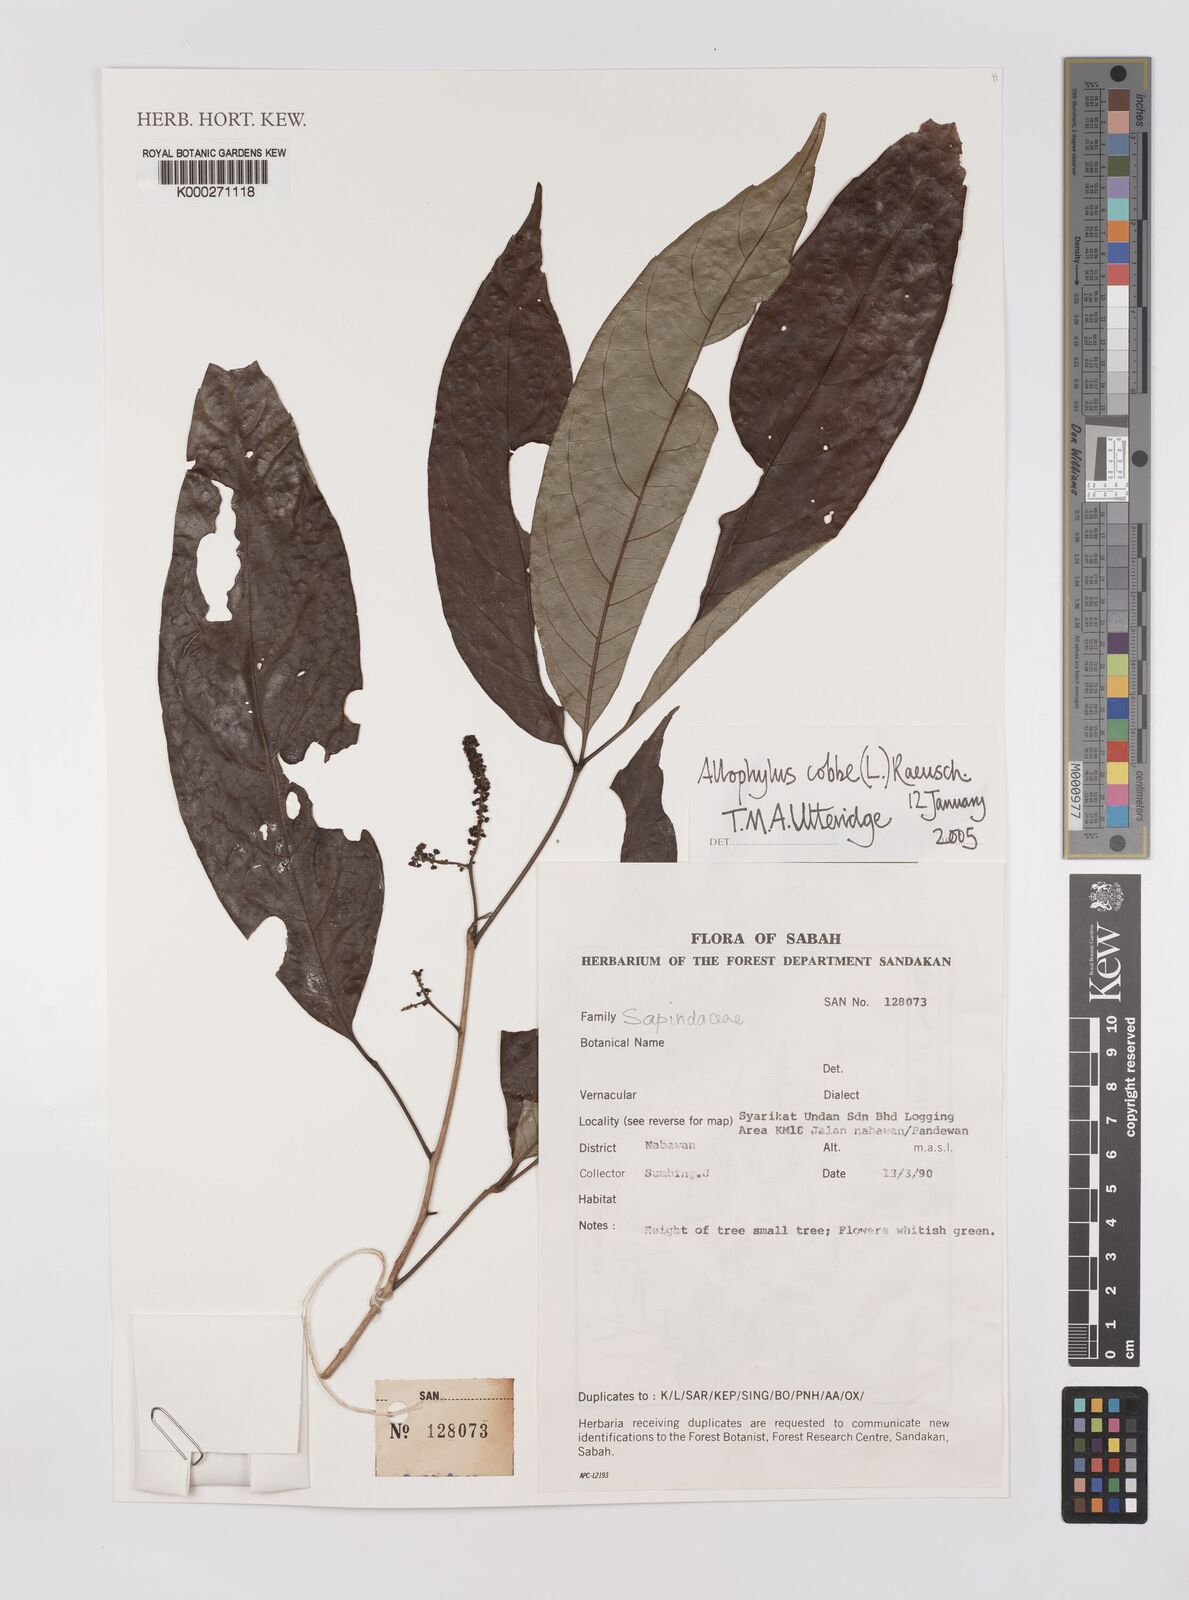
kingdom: Plantae
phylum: Tracheophyta
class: Magnoliopsida
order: Sapindales
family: Sapindaceae
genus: Allophylus
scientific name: Allophylus
